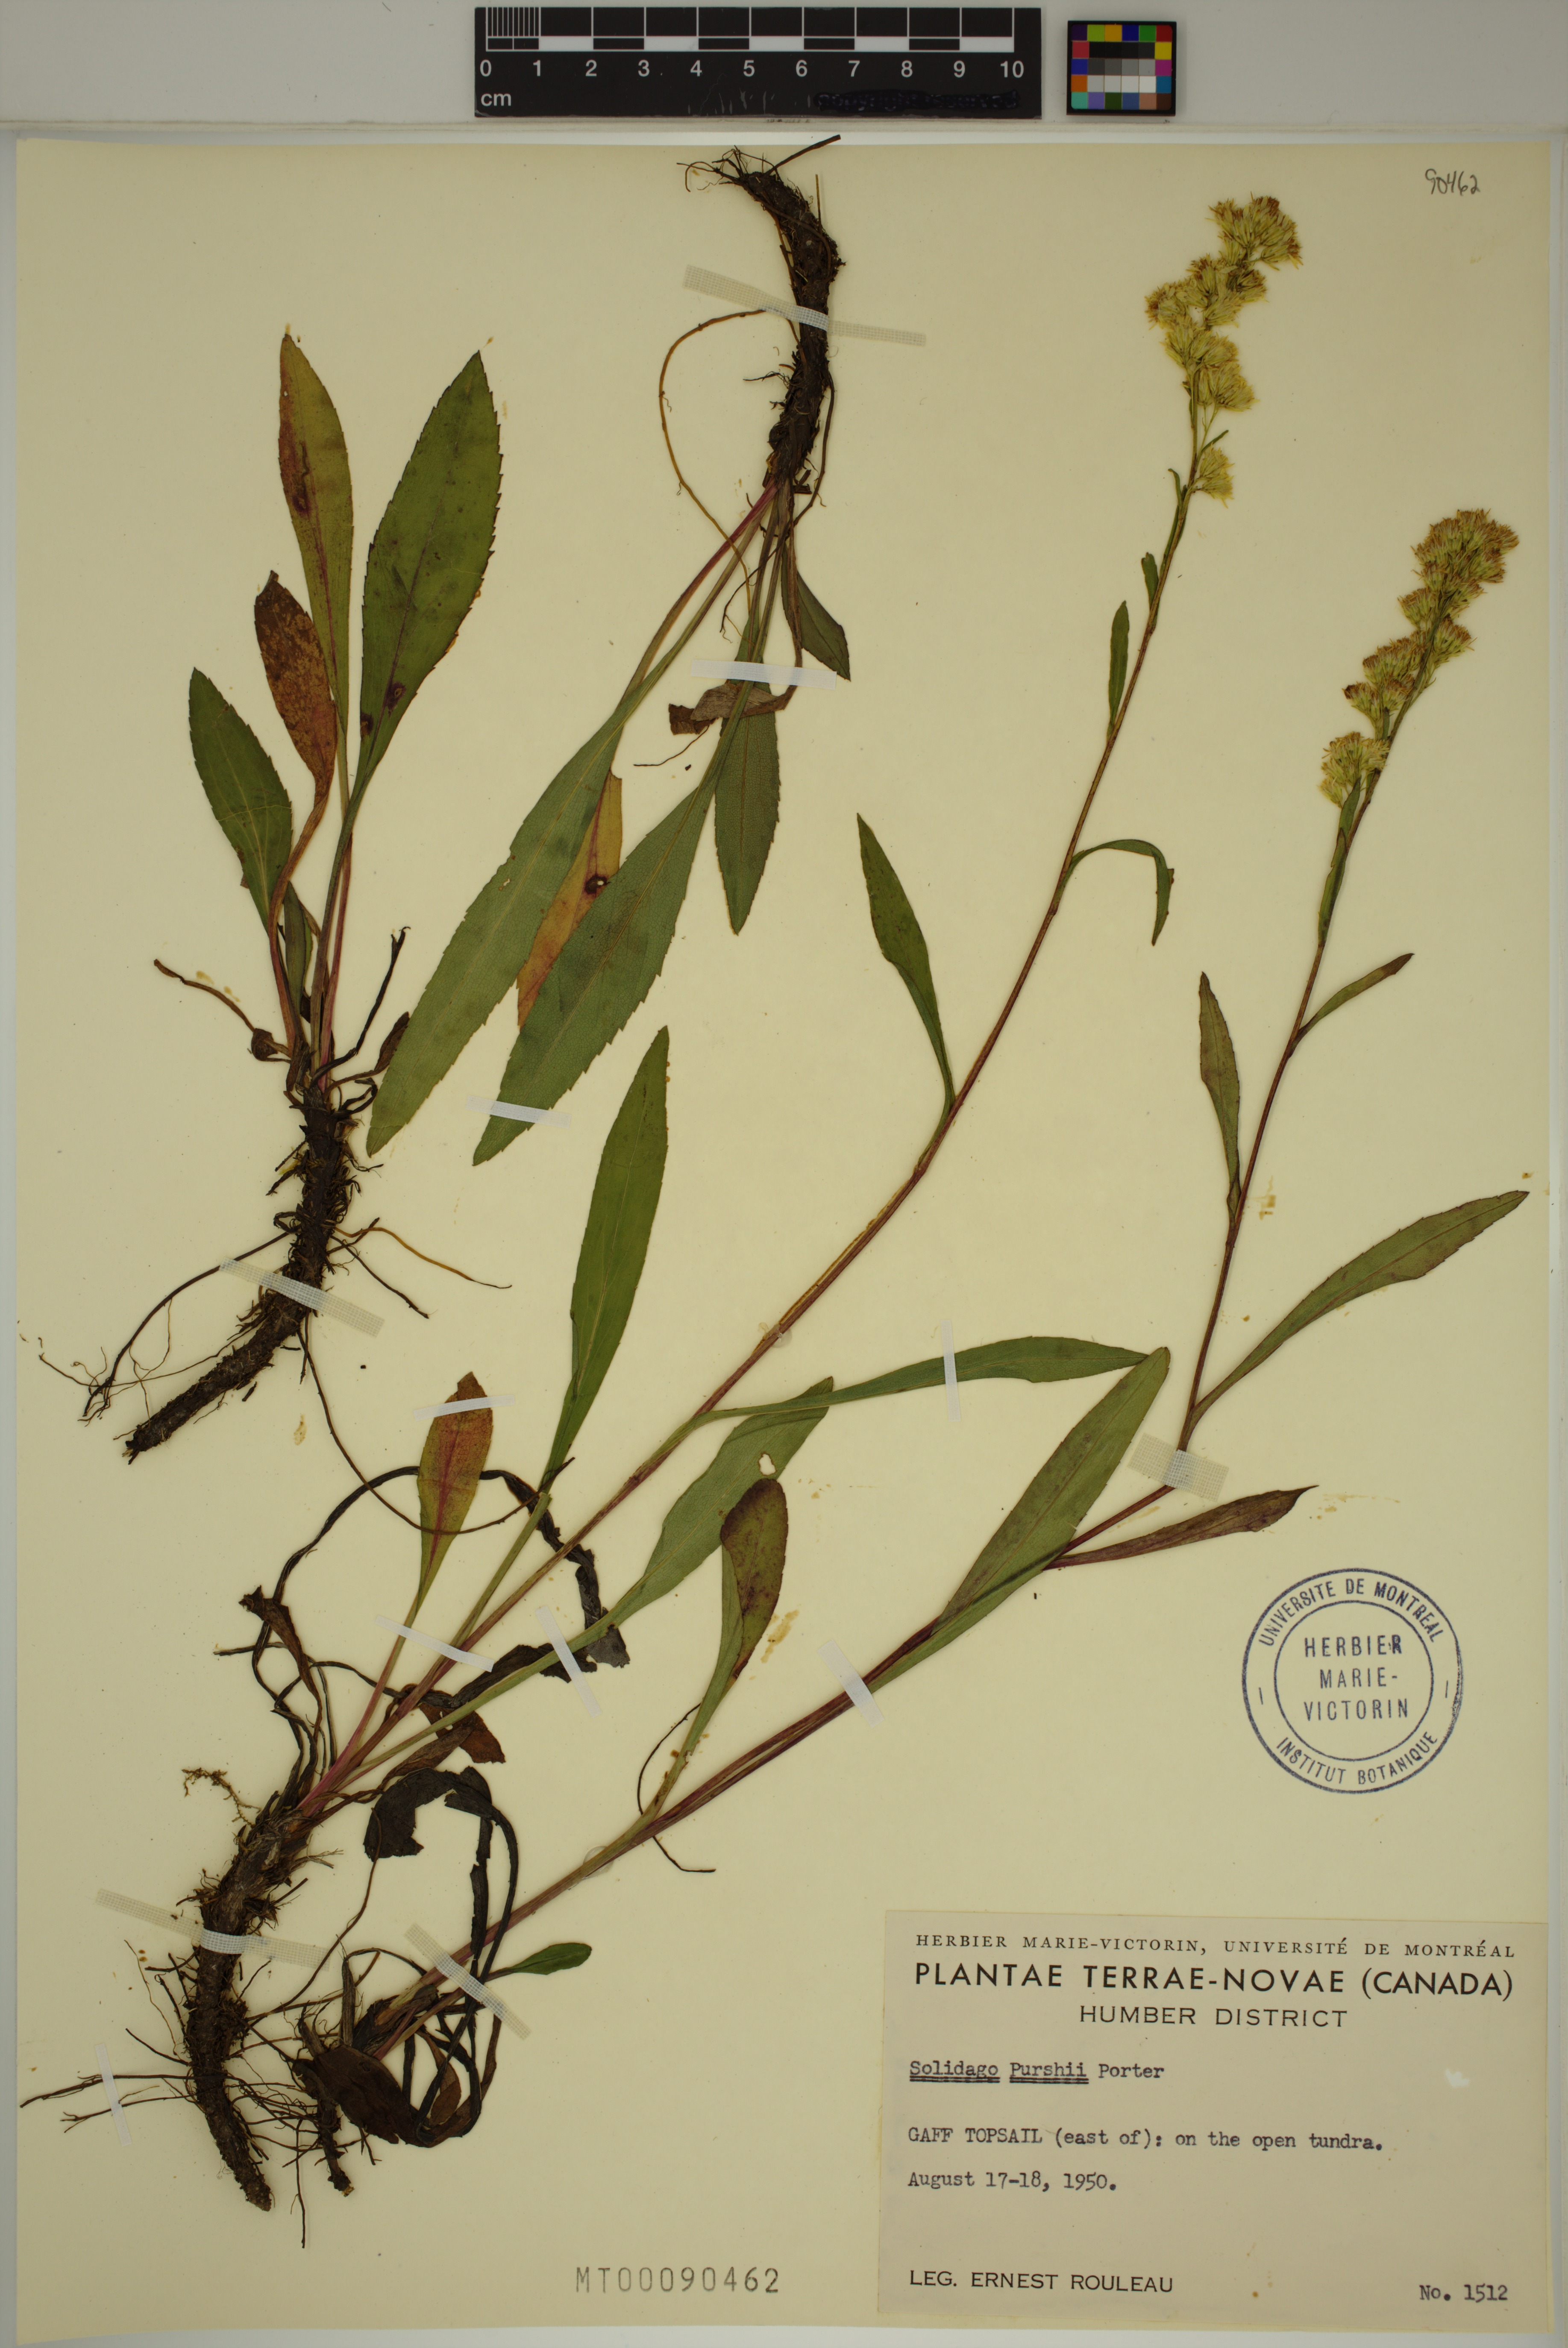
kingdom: Plantae
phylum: Tracheophyta
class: Magnoliopsida
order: Asterales
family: Asteraceae
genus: Solidago
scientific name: Solidago uliginosa
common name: Bog goldenrod
